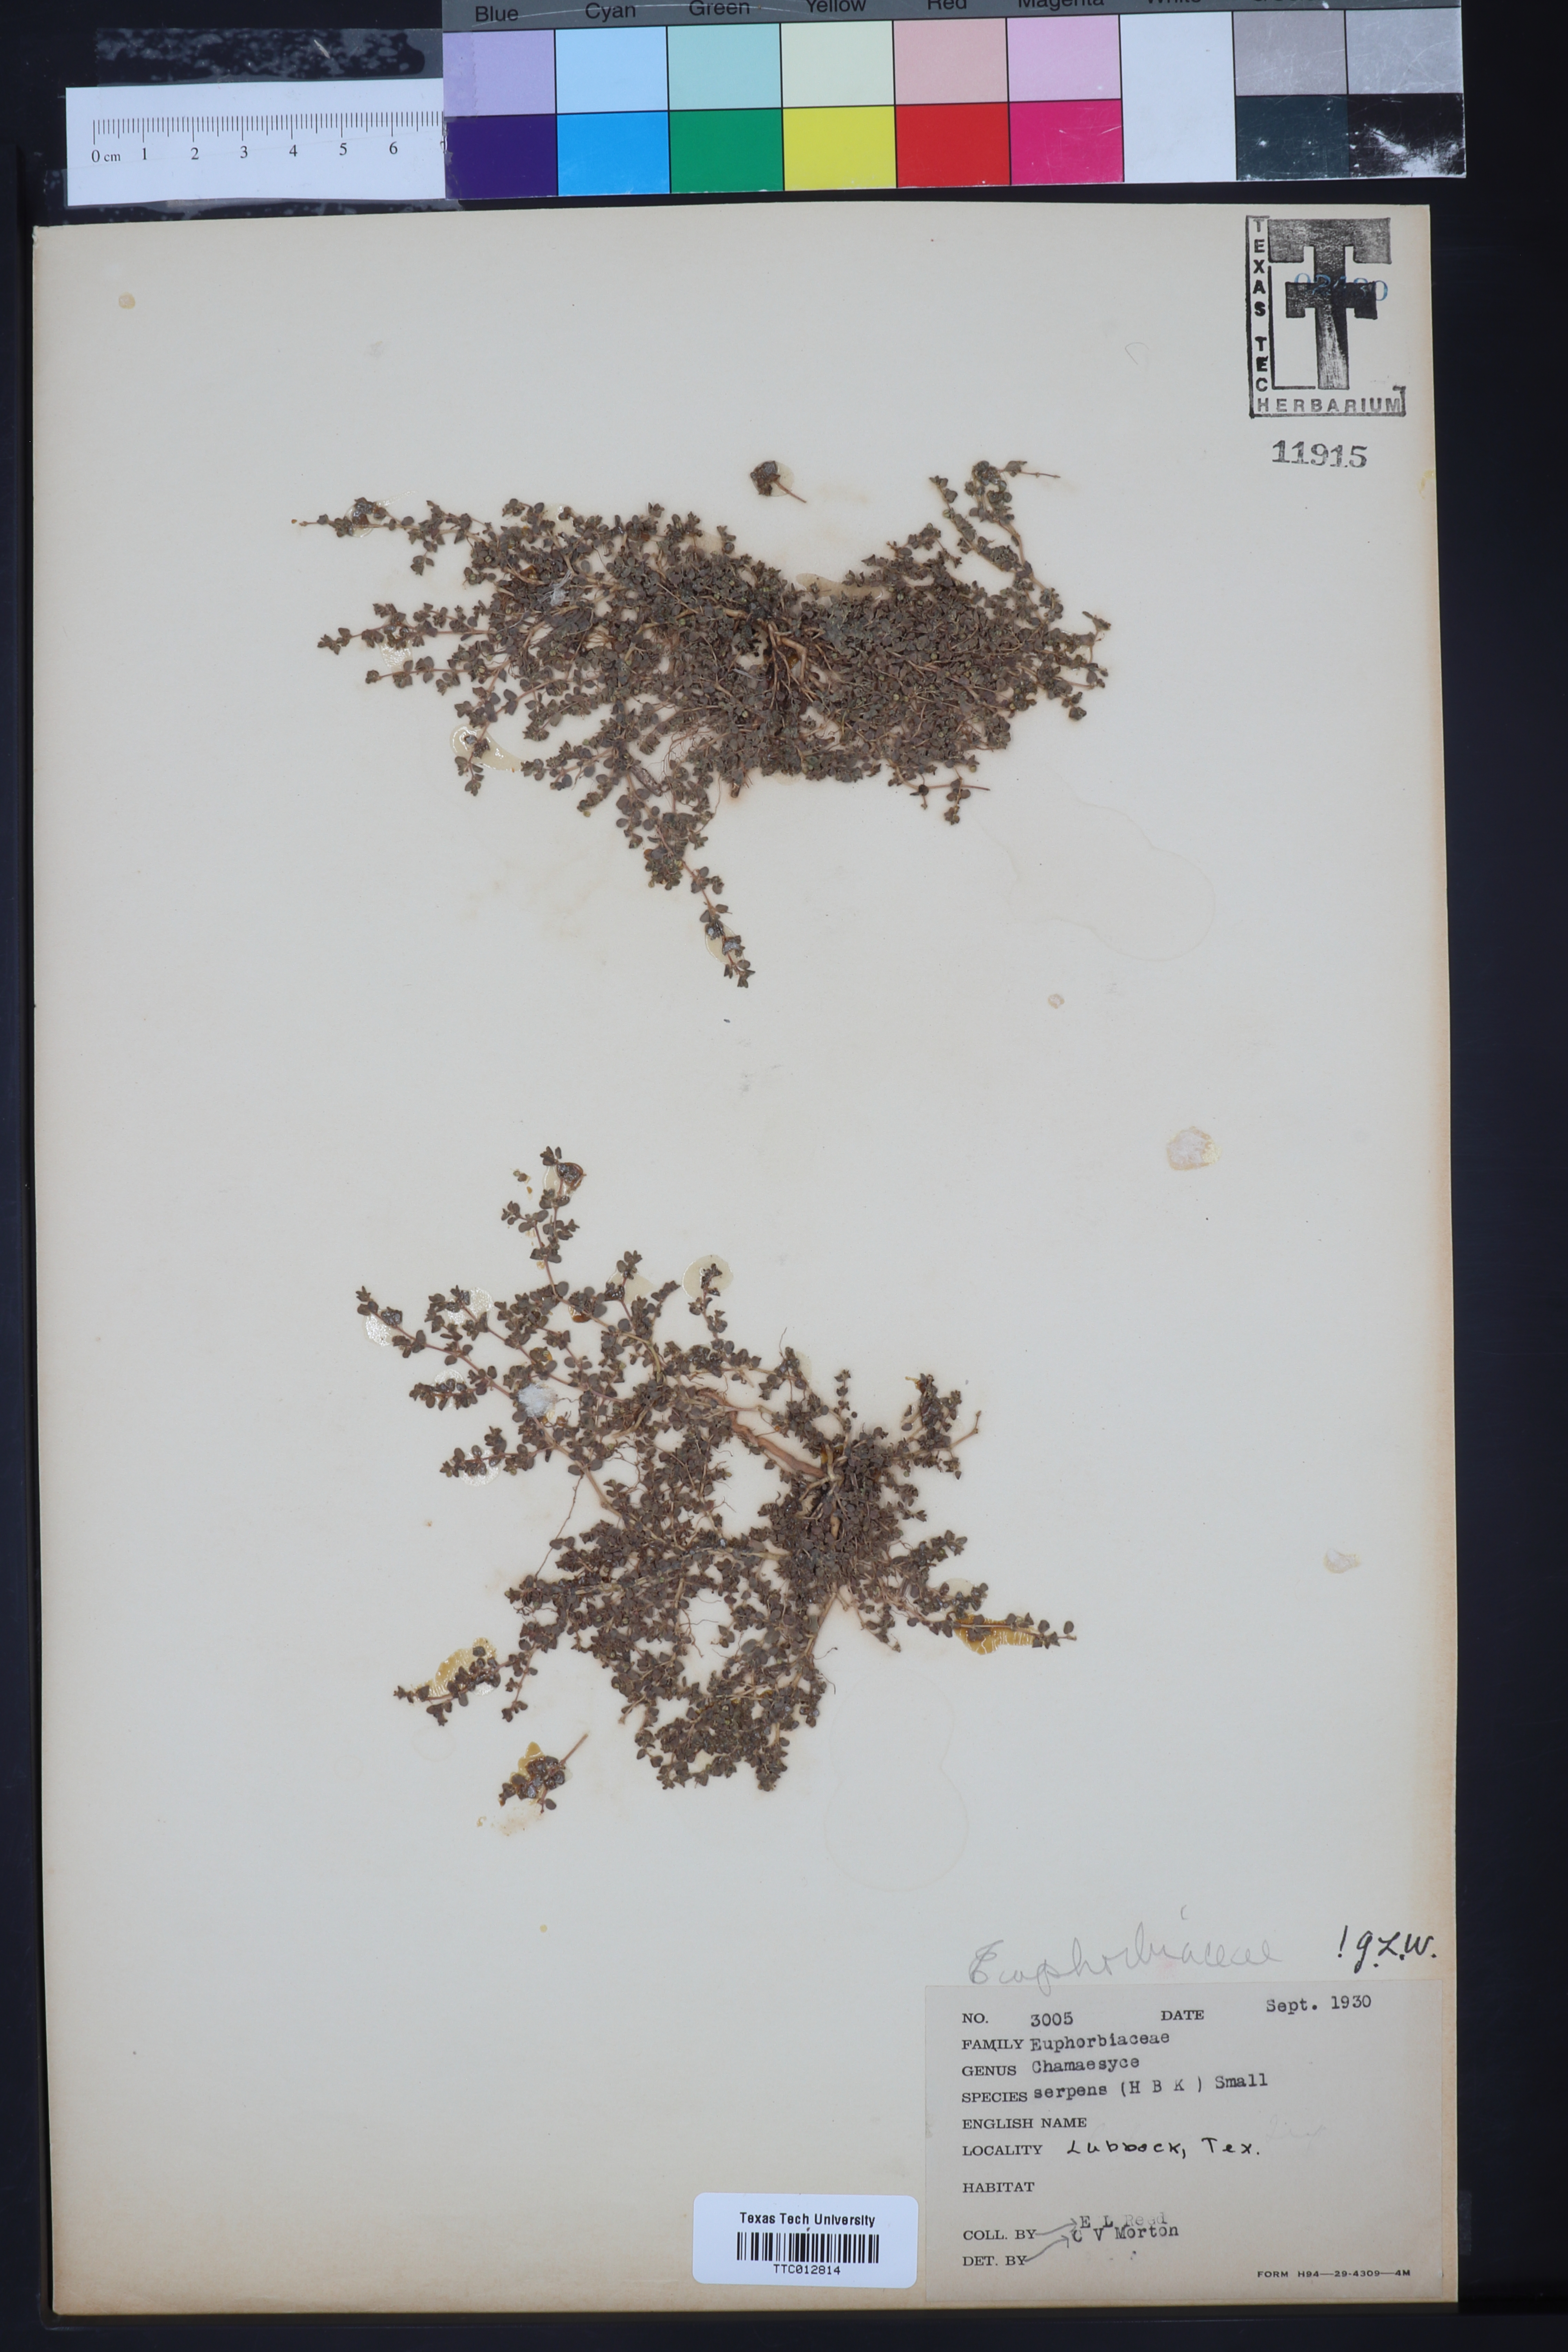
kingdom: Plantae
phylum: Tracheophyta
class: Magnoliopsida
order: Malpighiales
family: Euphorbiaceae
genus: Euphorbia
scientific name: Euphorbia serpens
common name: Matted sandmat
